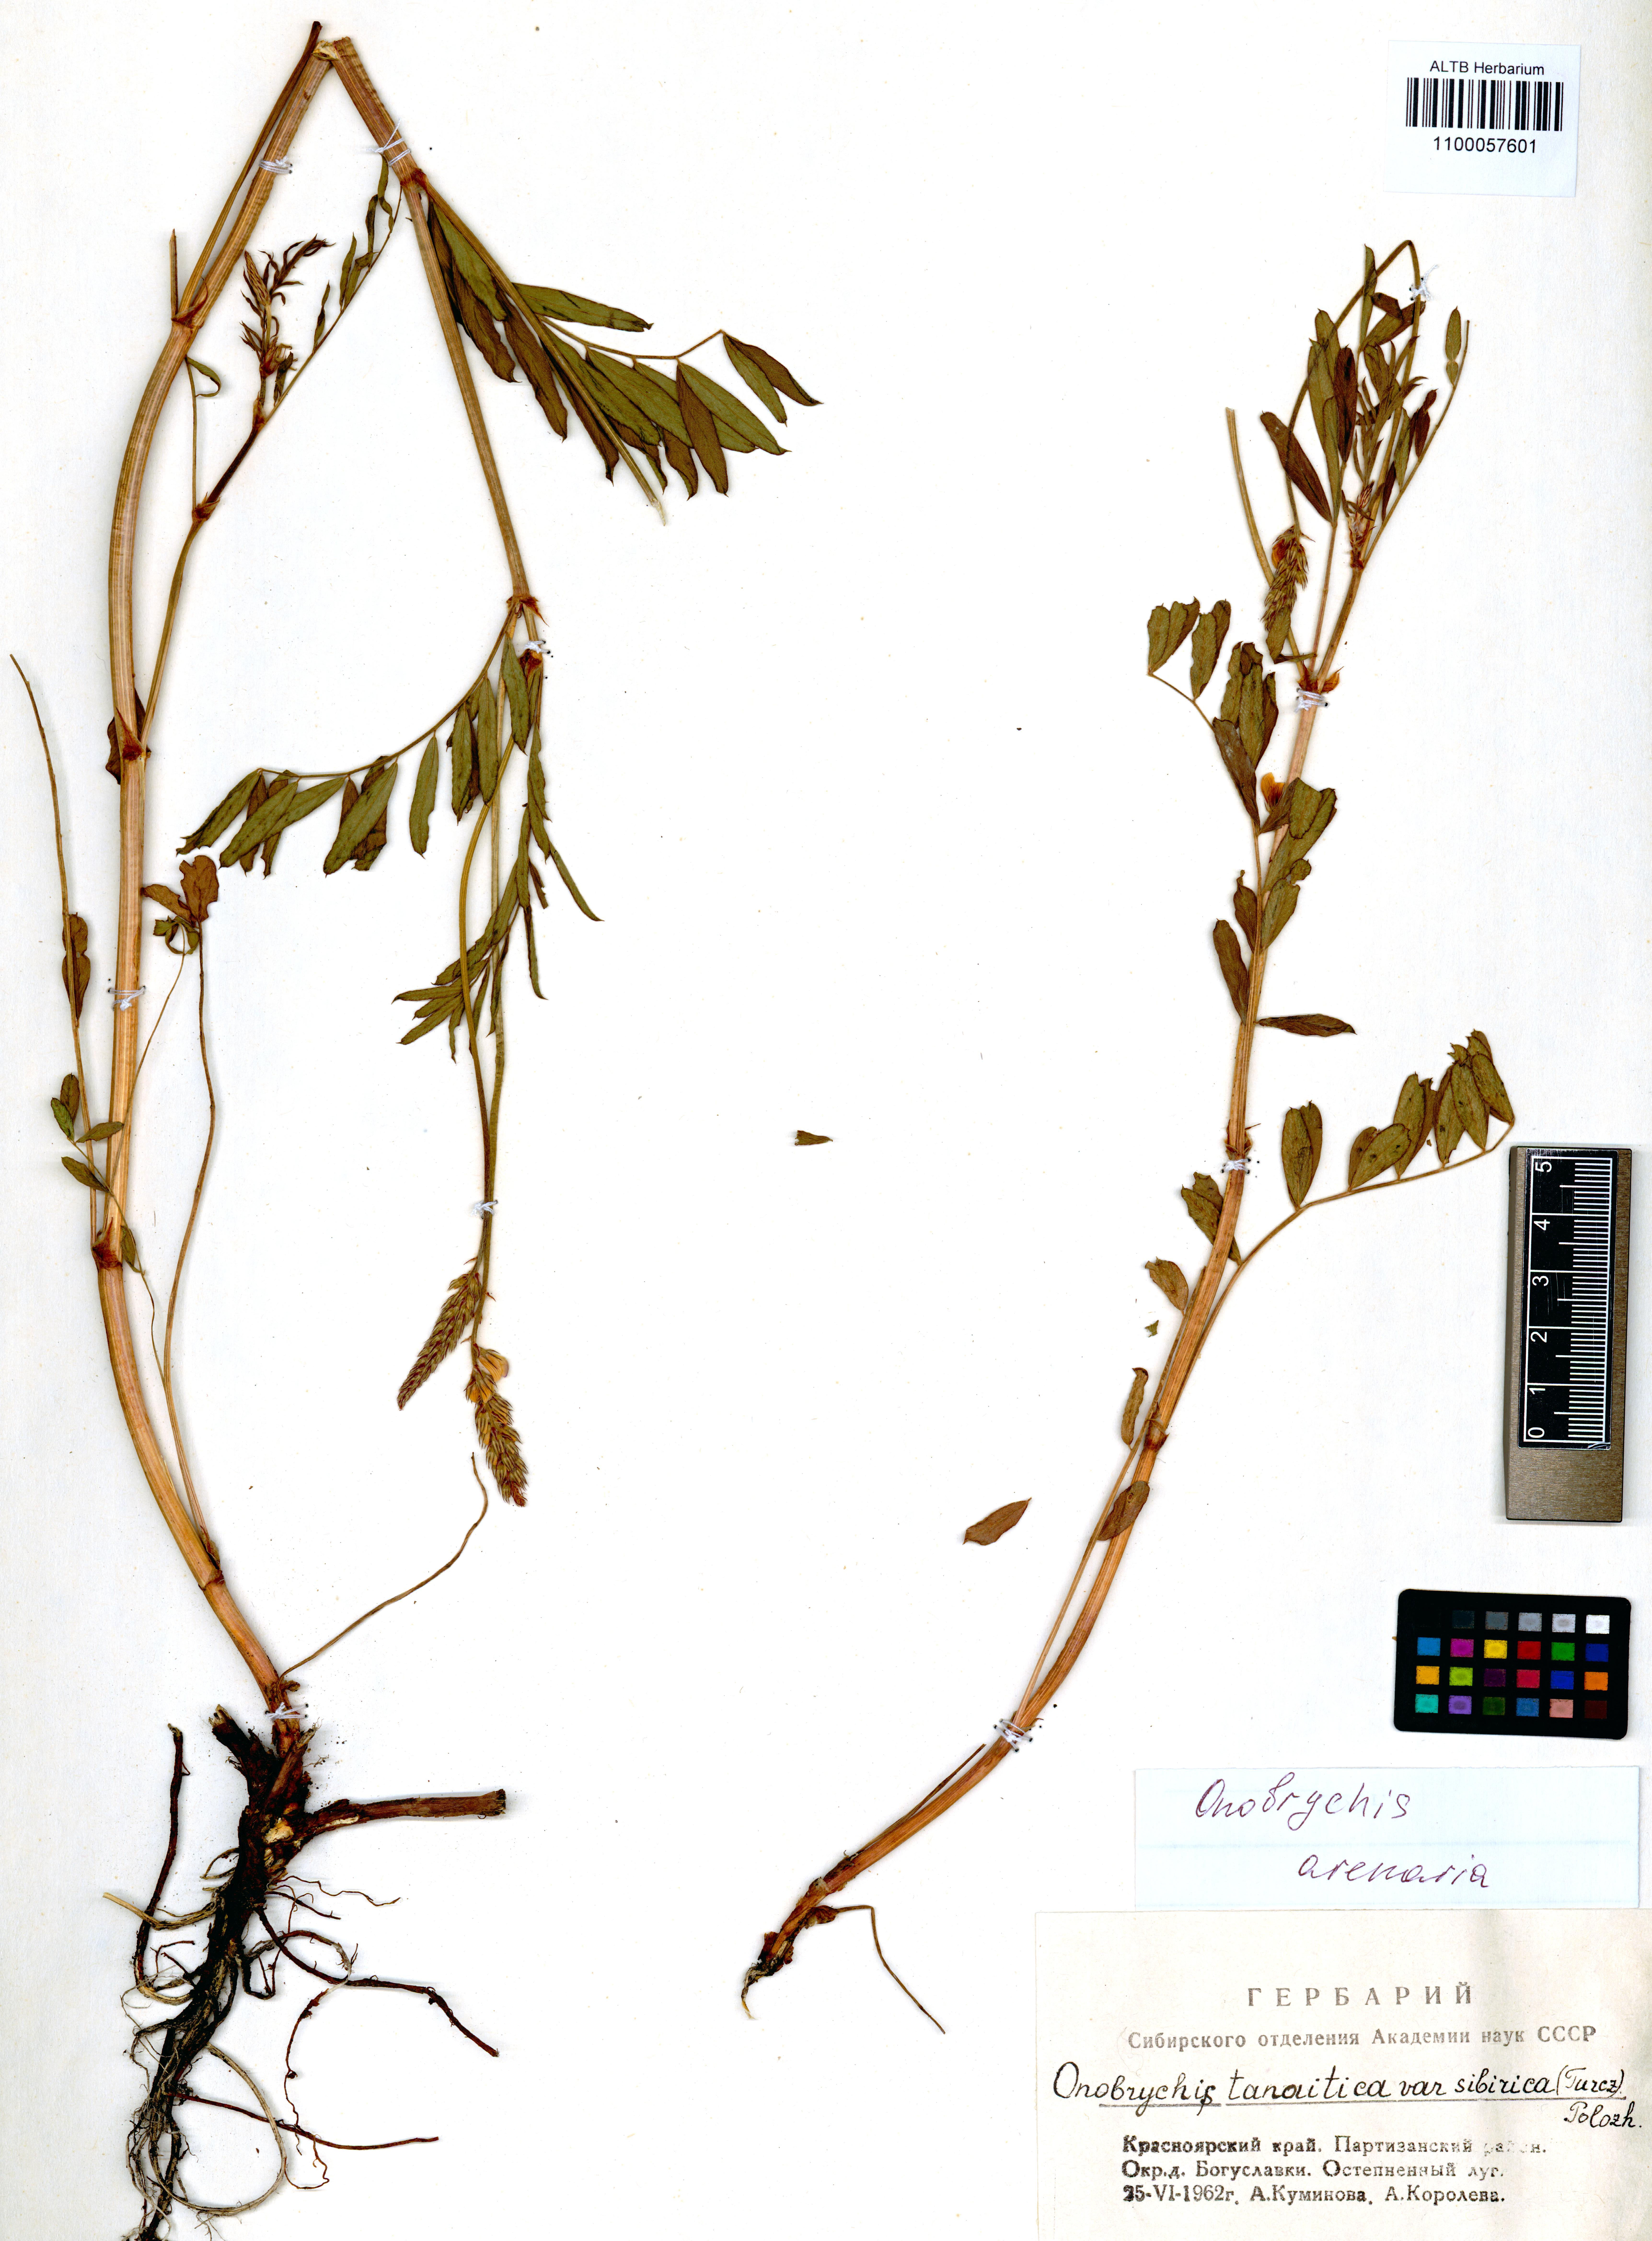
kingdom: Plantae
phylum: Tracheophyta
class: Magnoliopsida
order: Fabales
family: Fabaceae
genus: Onobrychis
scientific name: Onobrychis arenaria
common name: Sand esparcet
